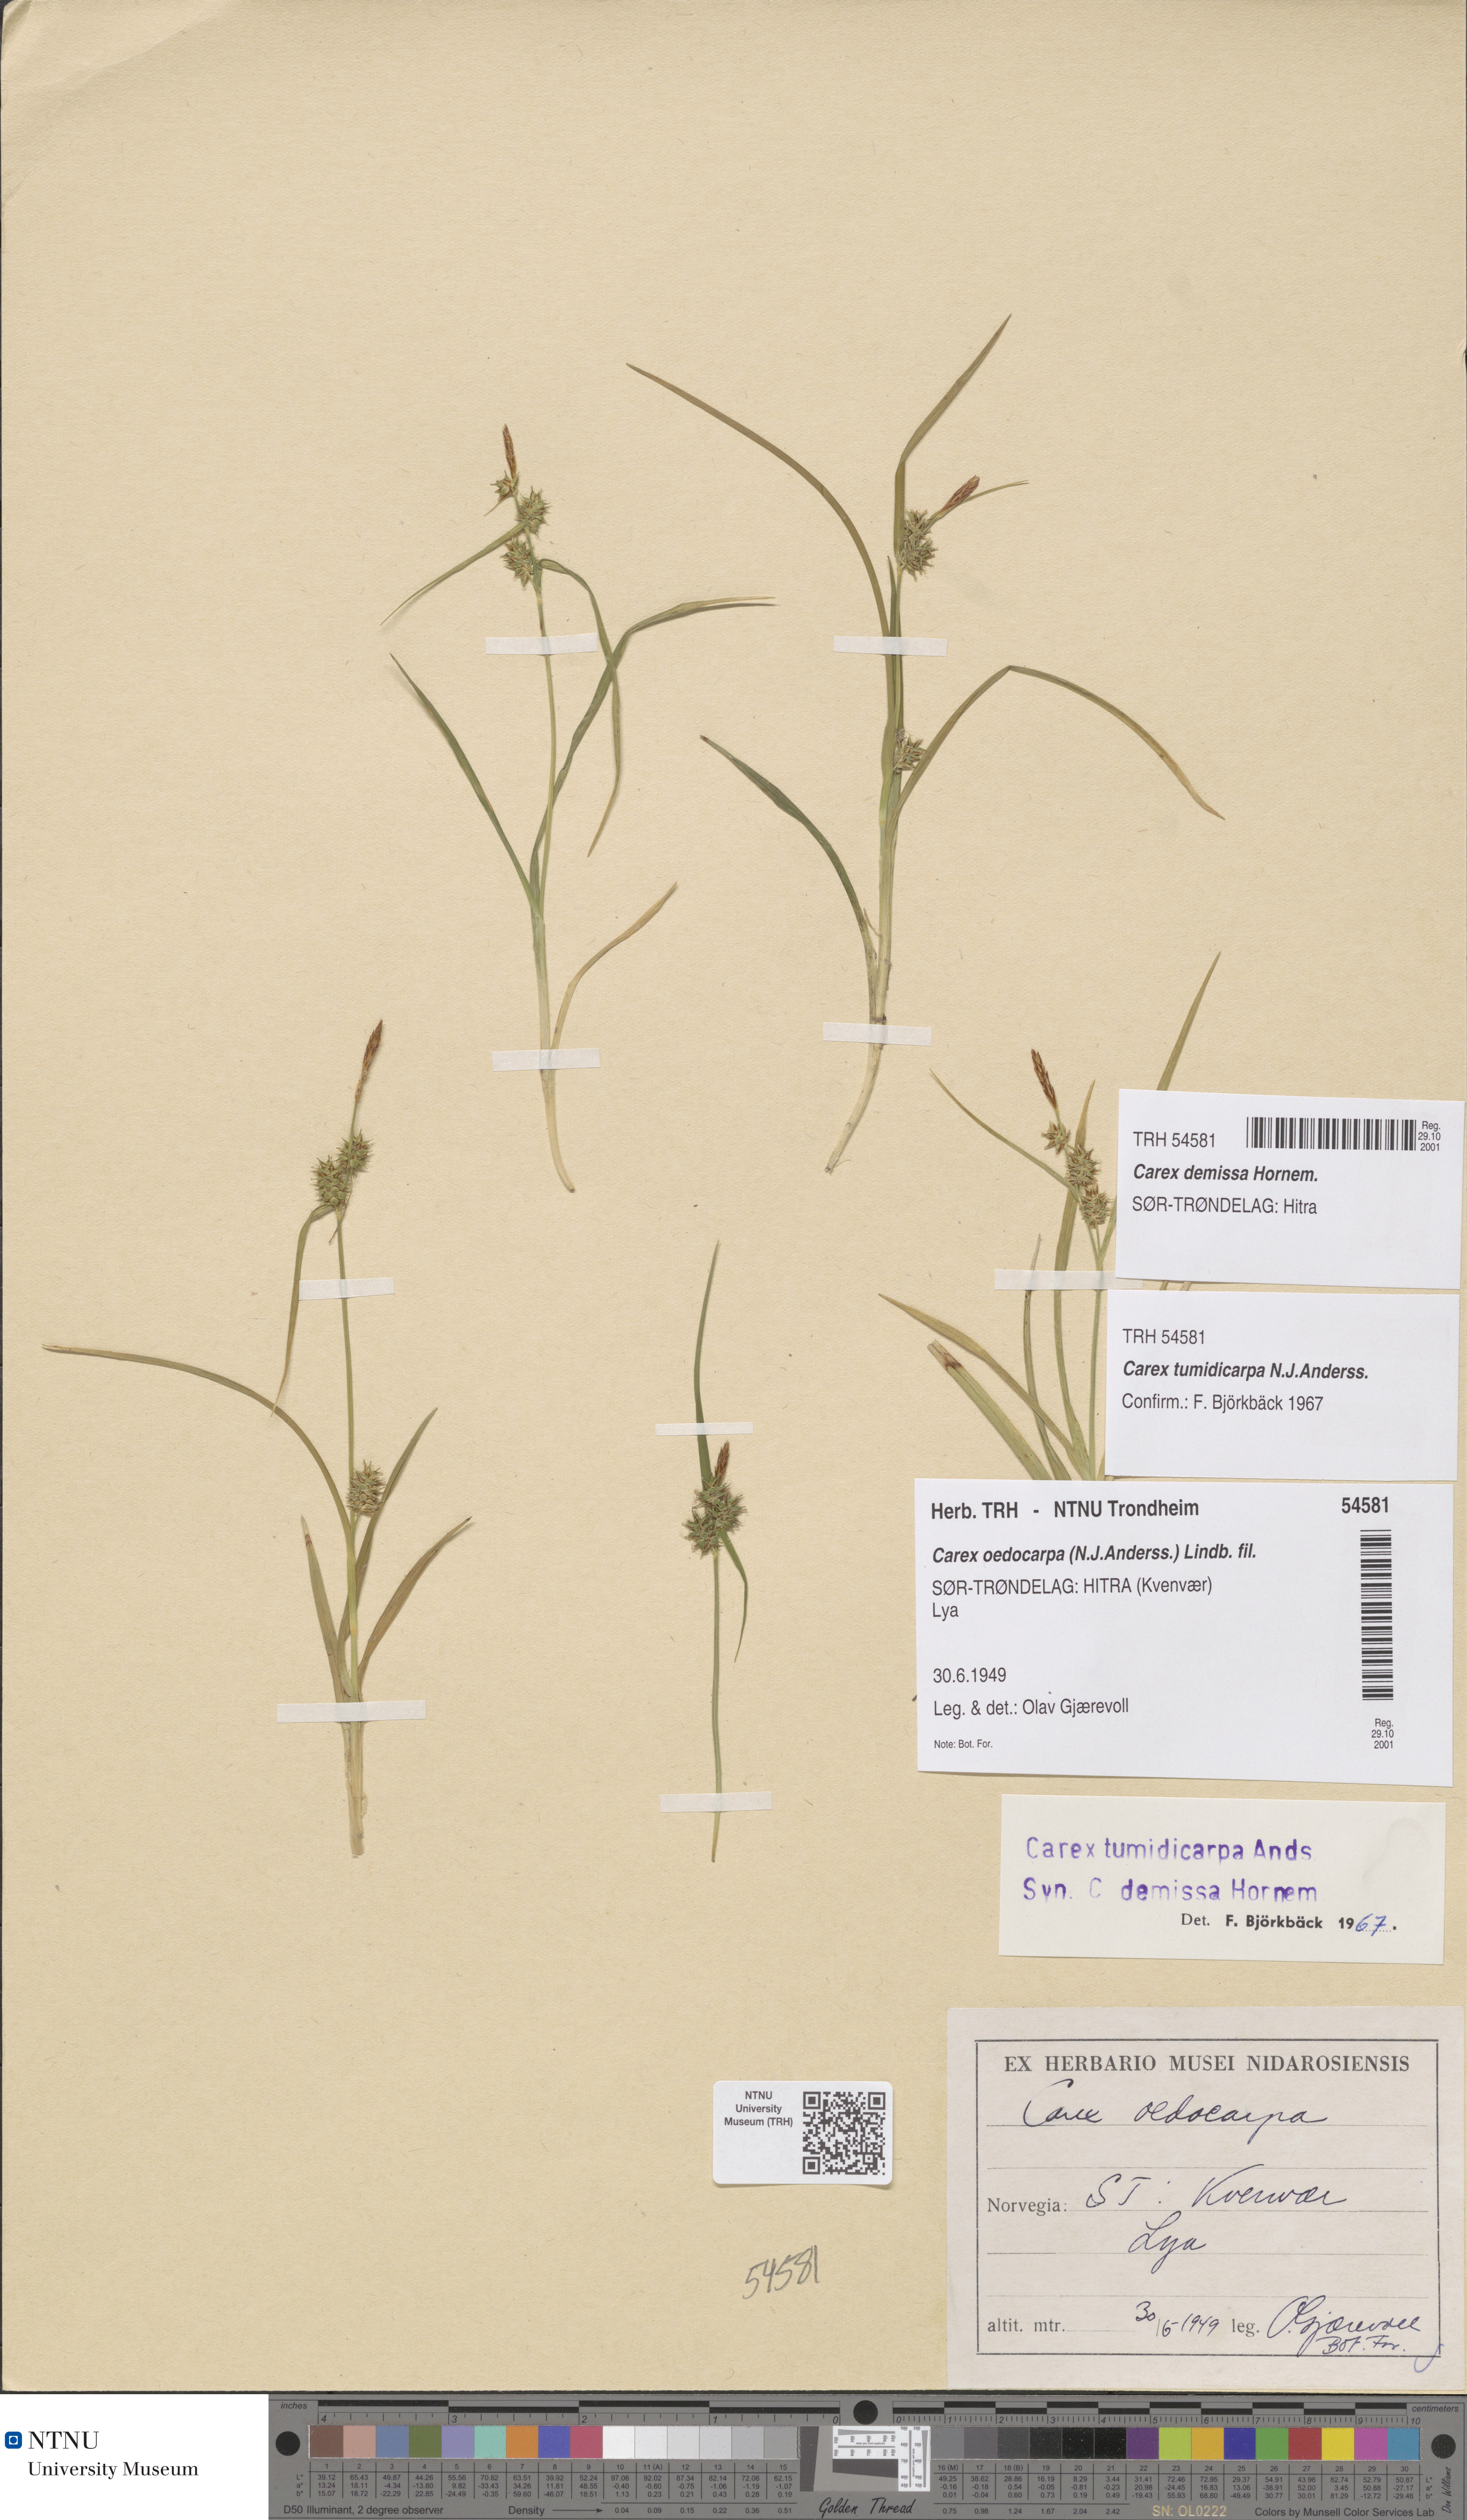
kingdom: Plantae
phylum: Tracheophyta
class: Liliopsida
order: Poales
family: Cyperaceae
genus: Carex
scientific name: Carex demissa
